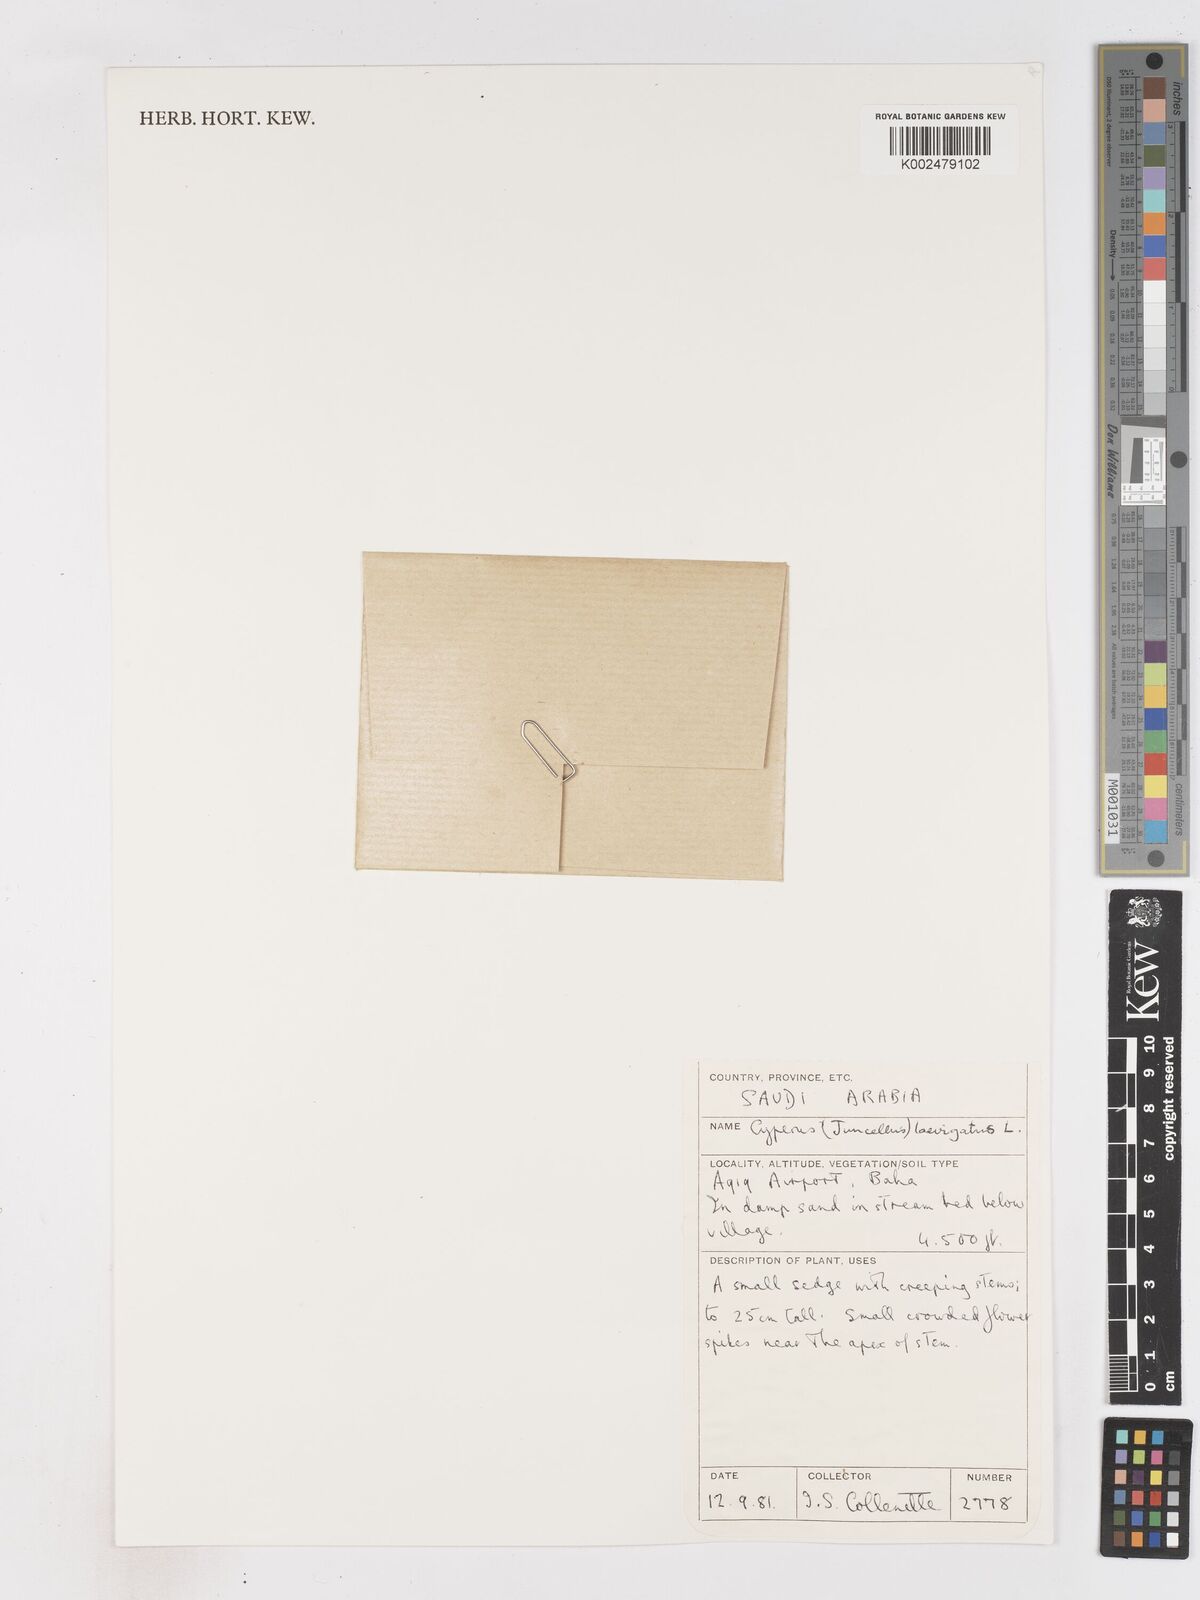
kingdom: Plantae
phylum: Tracheophyta
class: Liliopsida
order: Poales
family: Cyperaceae
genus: Cyperus
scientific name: Cyperus laevigatus
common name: Smooth flat sedge
